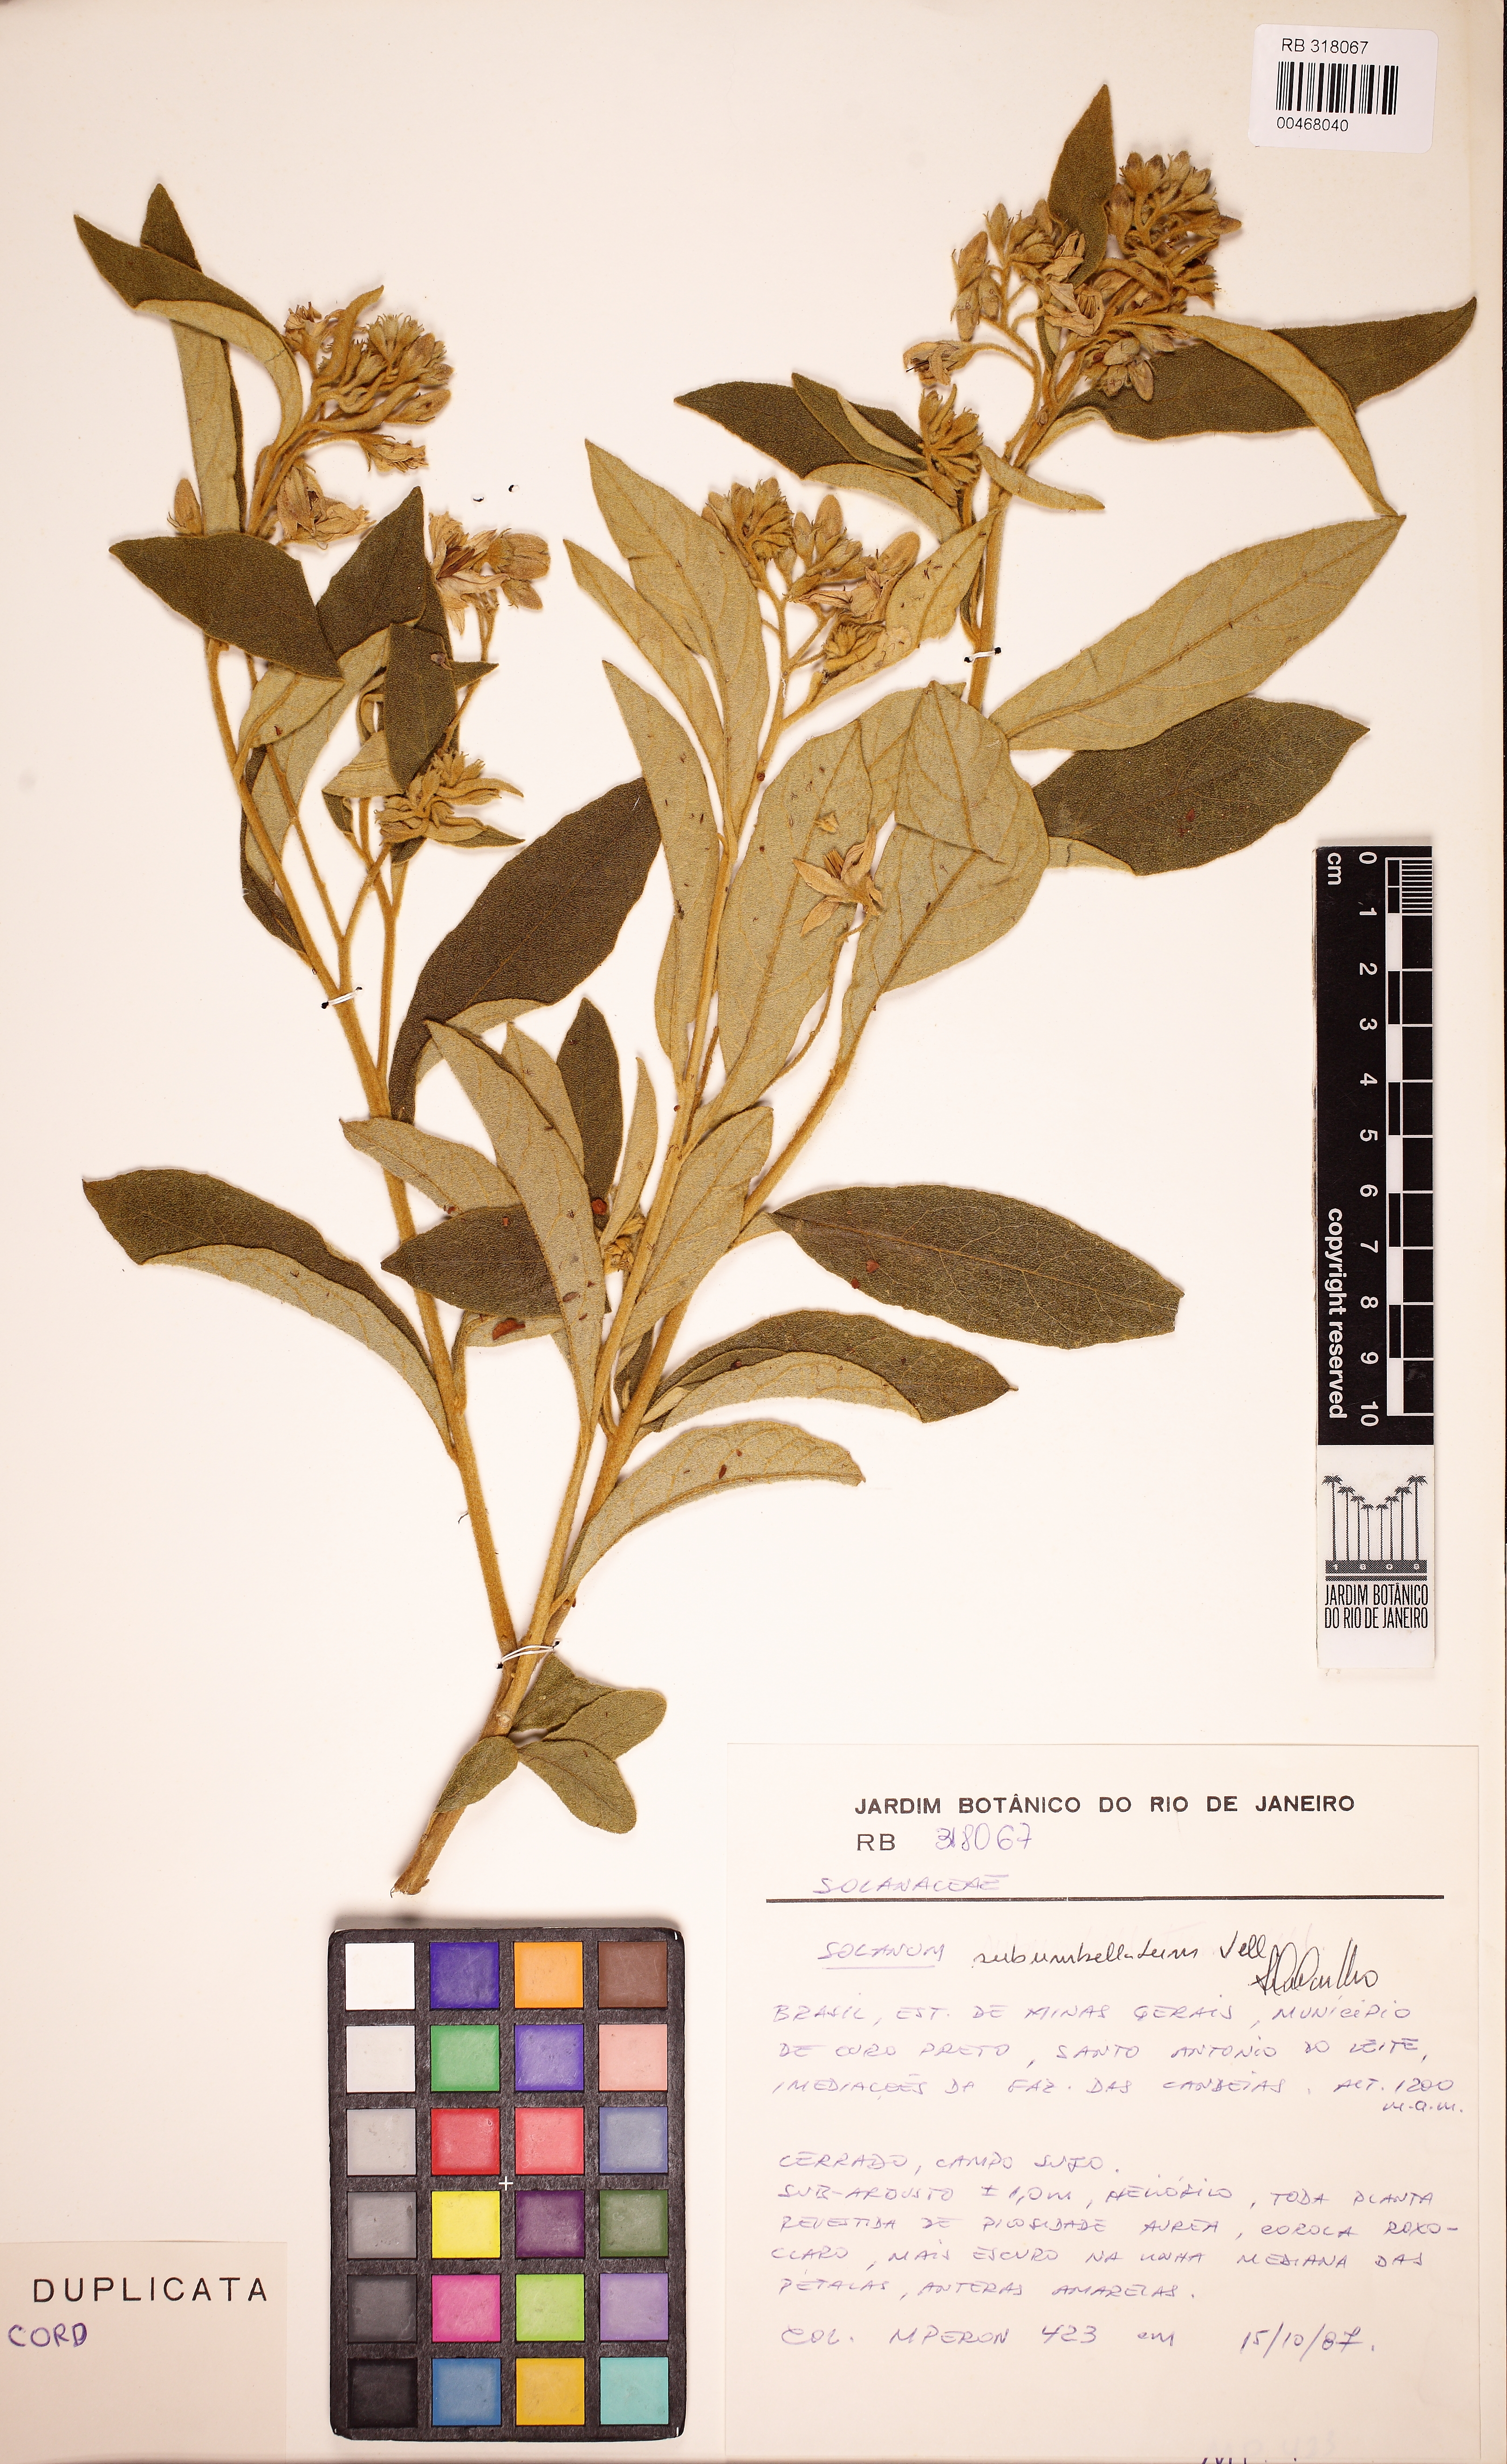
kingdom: Plantae
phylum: Tracheophyta
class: Magnoliopsida
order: Solanales
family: Solanaceae
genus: Solanum
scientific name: Solanum subumbellatum
